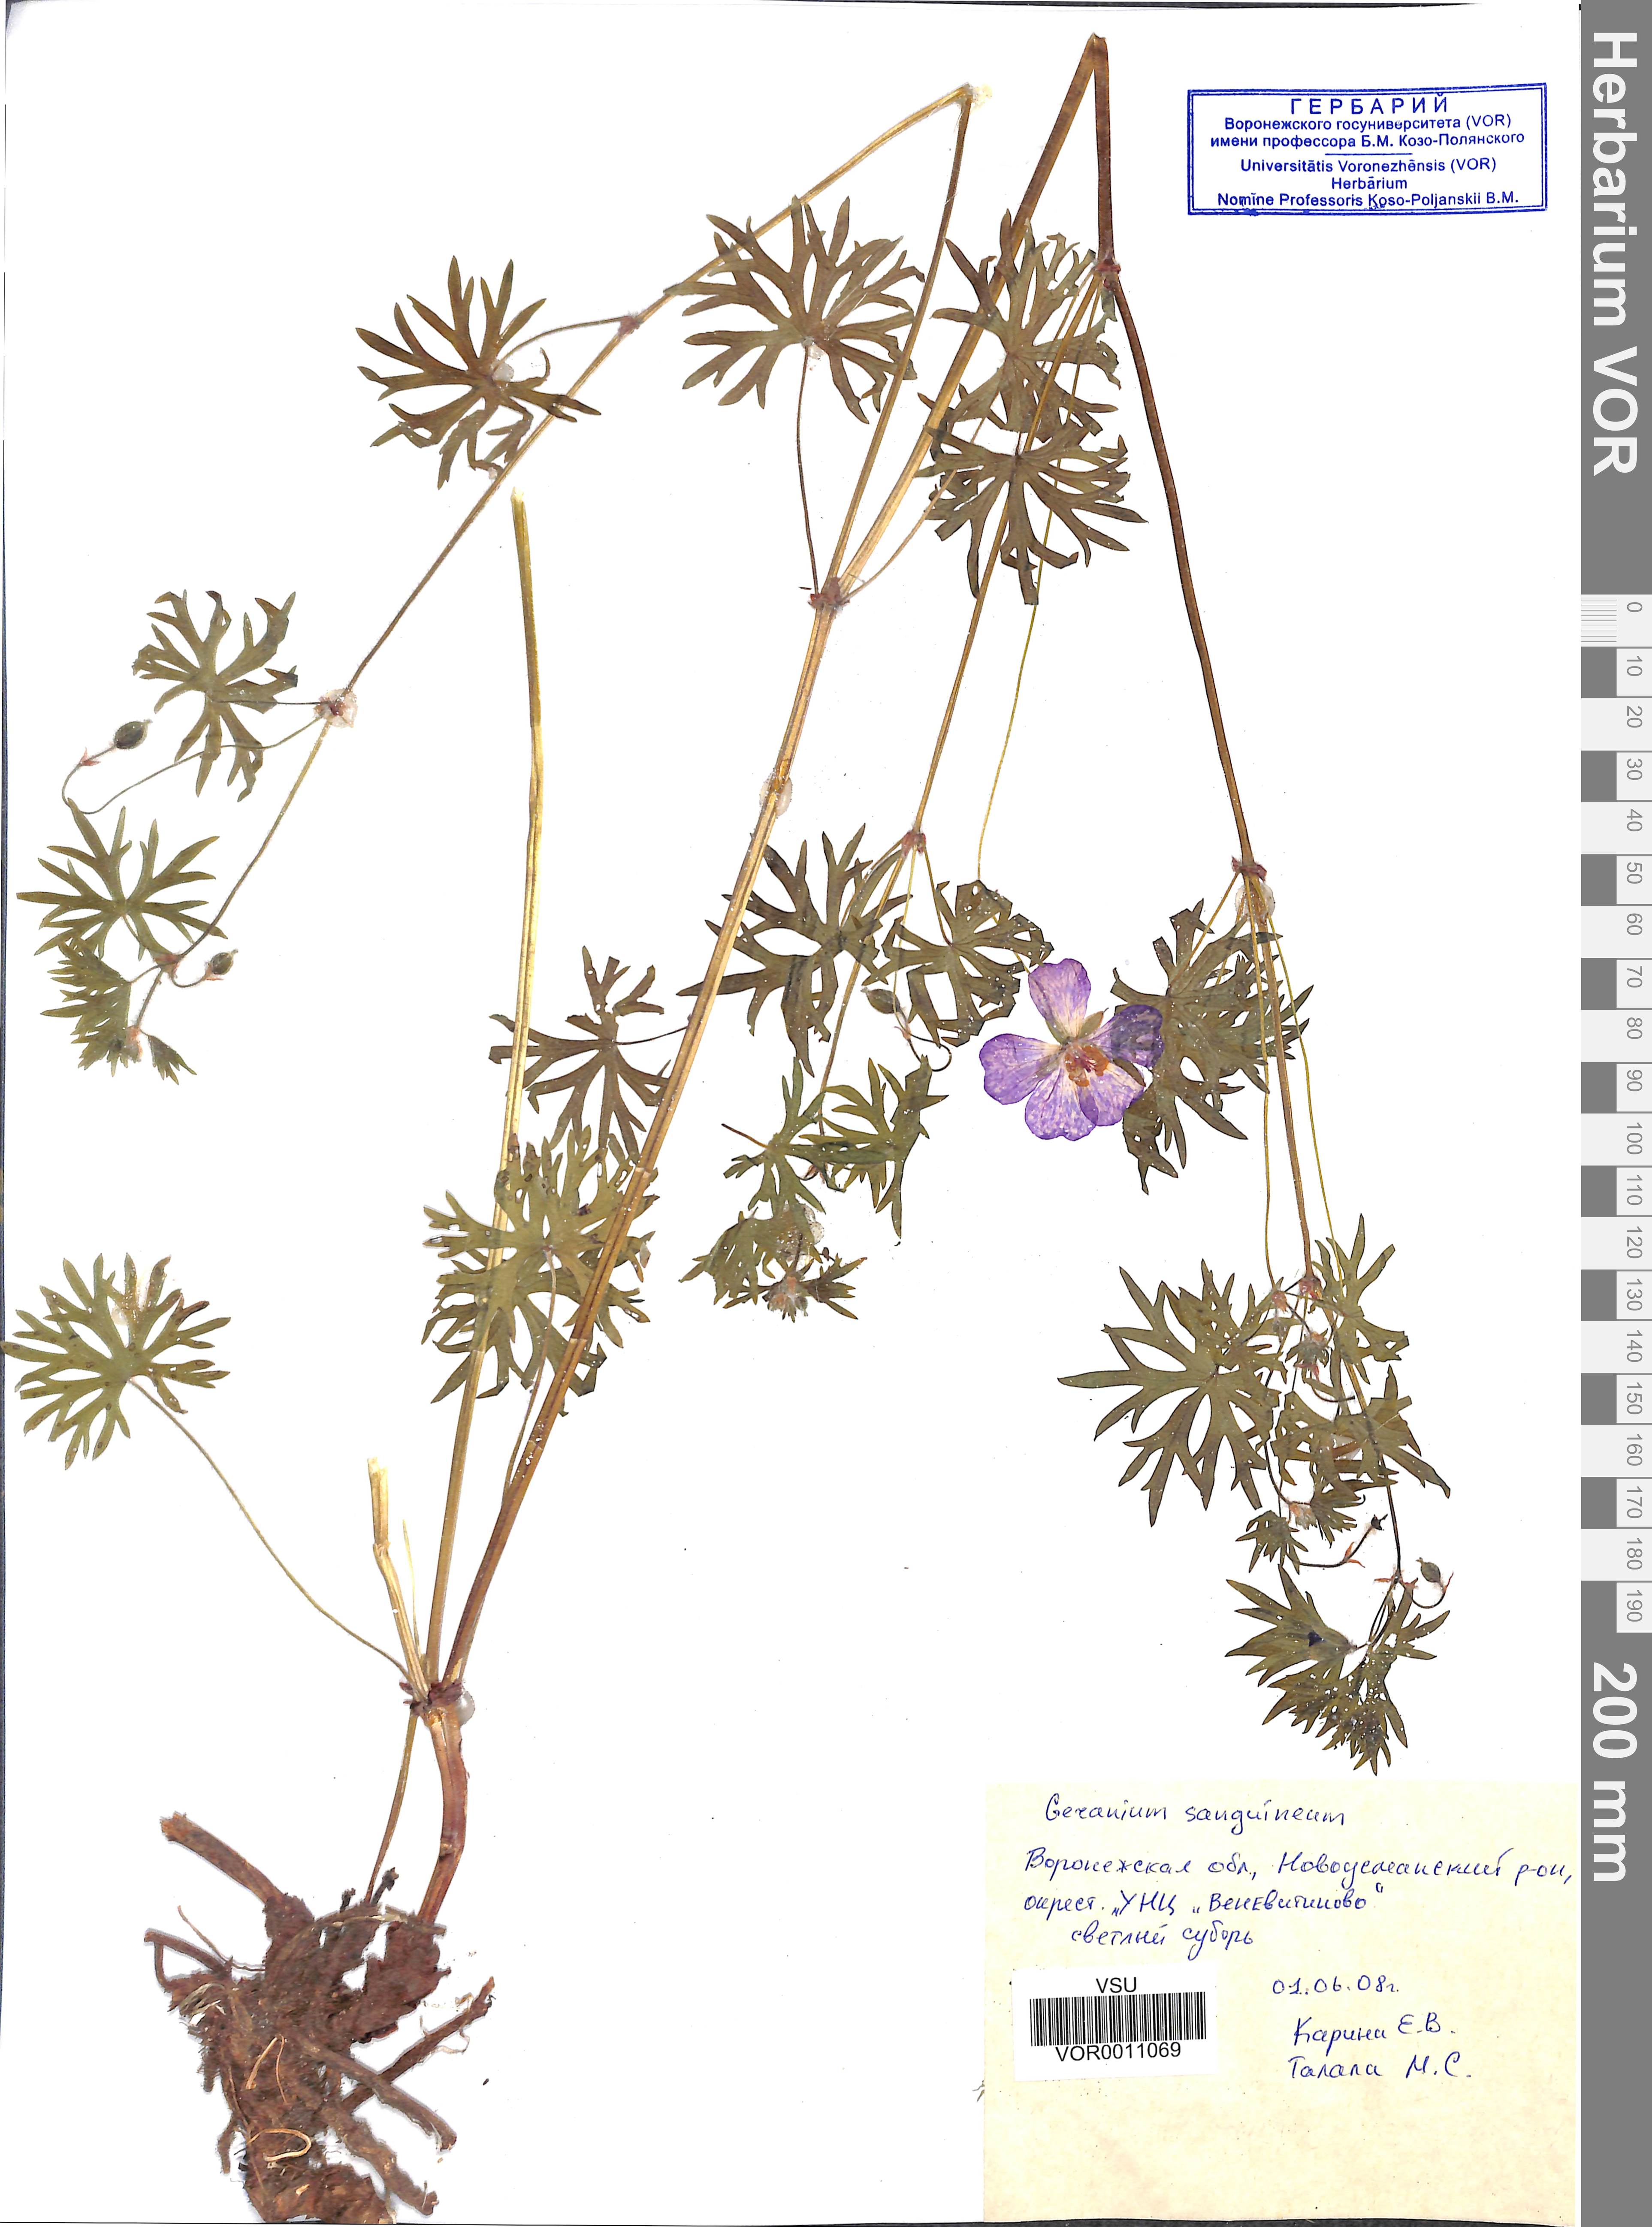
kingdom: Plantae
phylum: Tracheophyta
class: Magnoliopsida
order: Geraniales
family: Geraniaceae
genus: Geranium
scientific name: Geranium sanguineum
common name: Bloody crane's-bill
